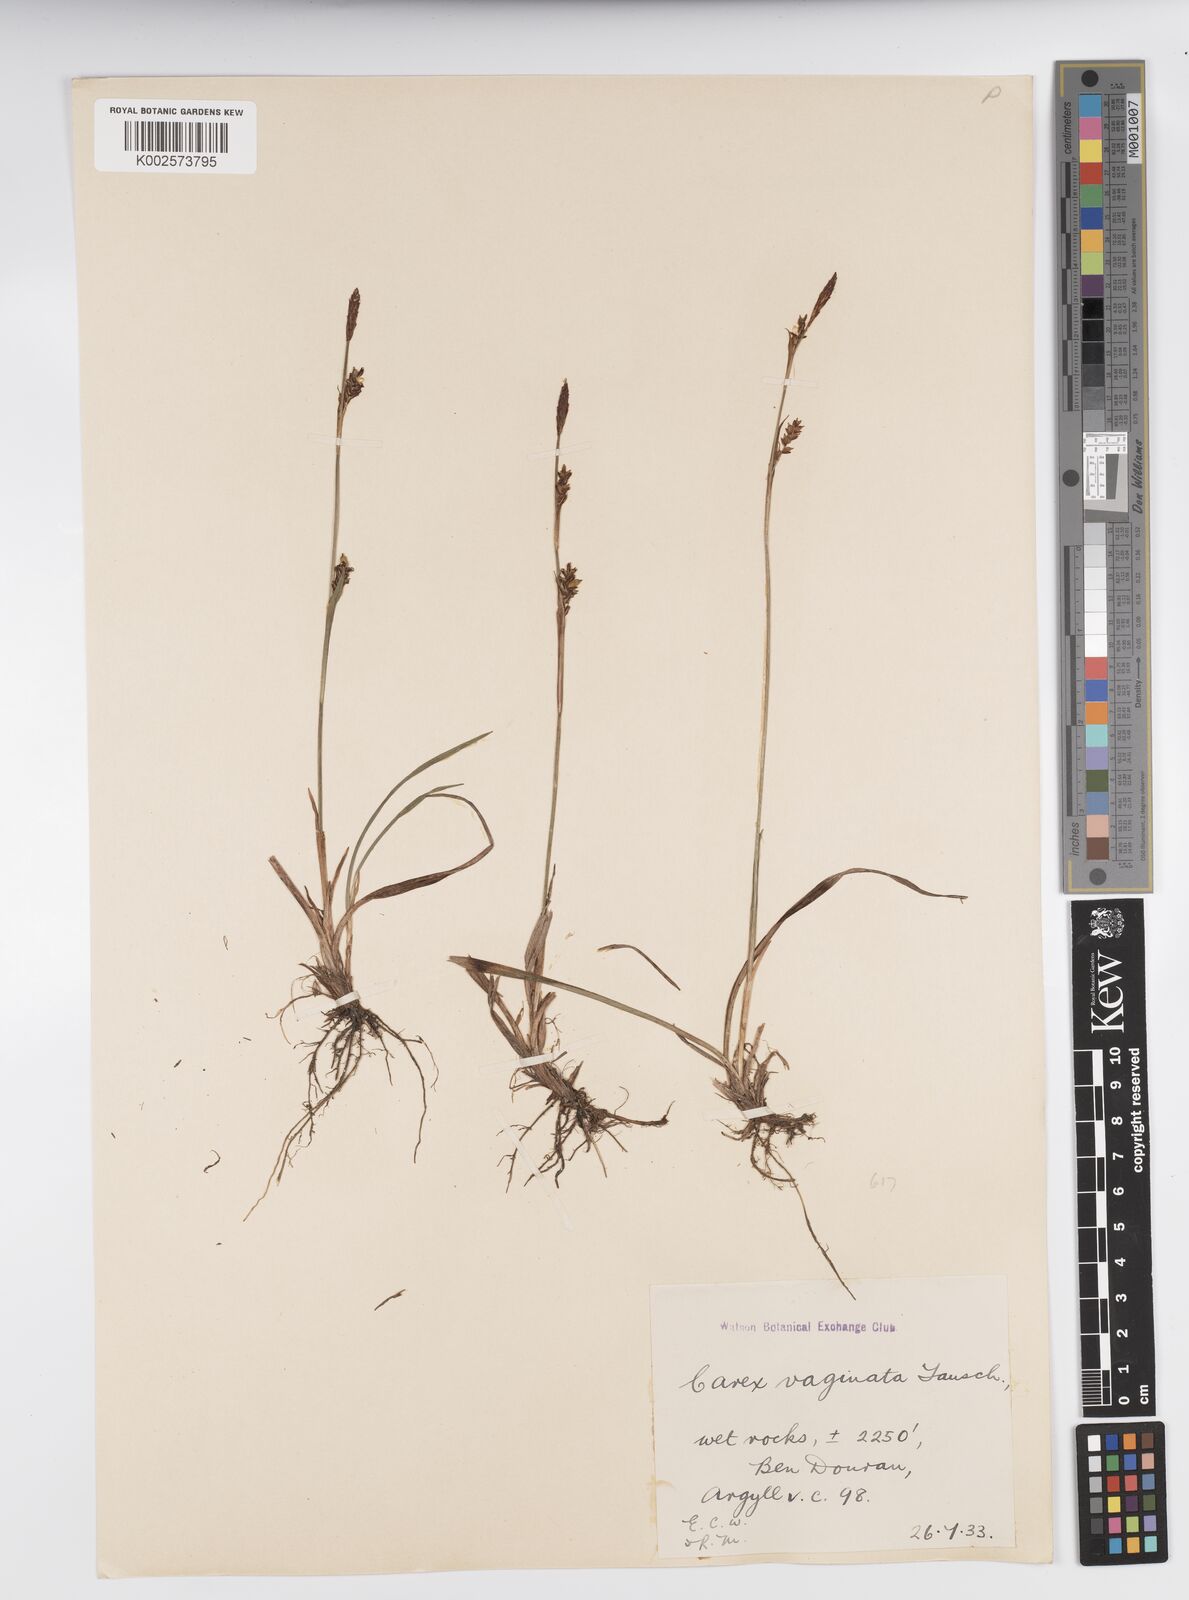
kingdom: Plantae
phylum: Tracheophyta
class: Liliopsida
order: Poales
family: Cyperaceae
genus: Carex
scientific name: Carex vaginata
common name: Sheathed sedge
